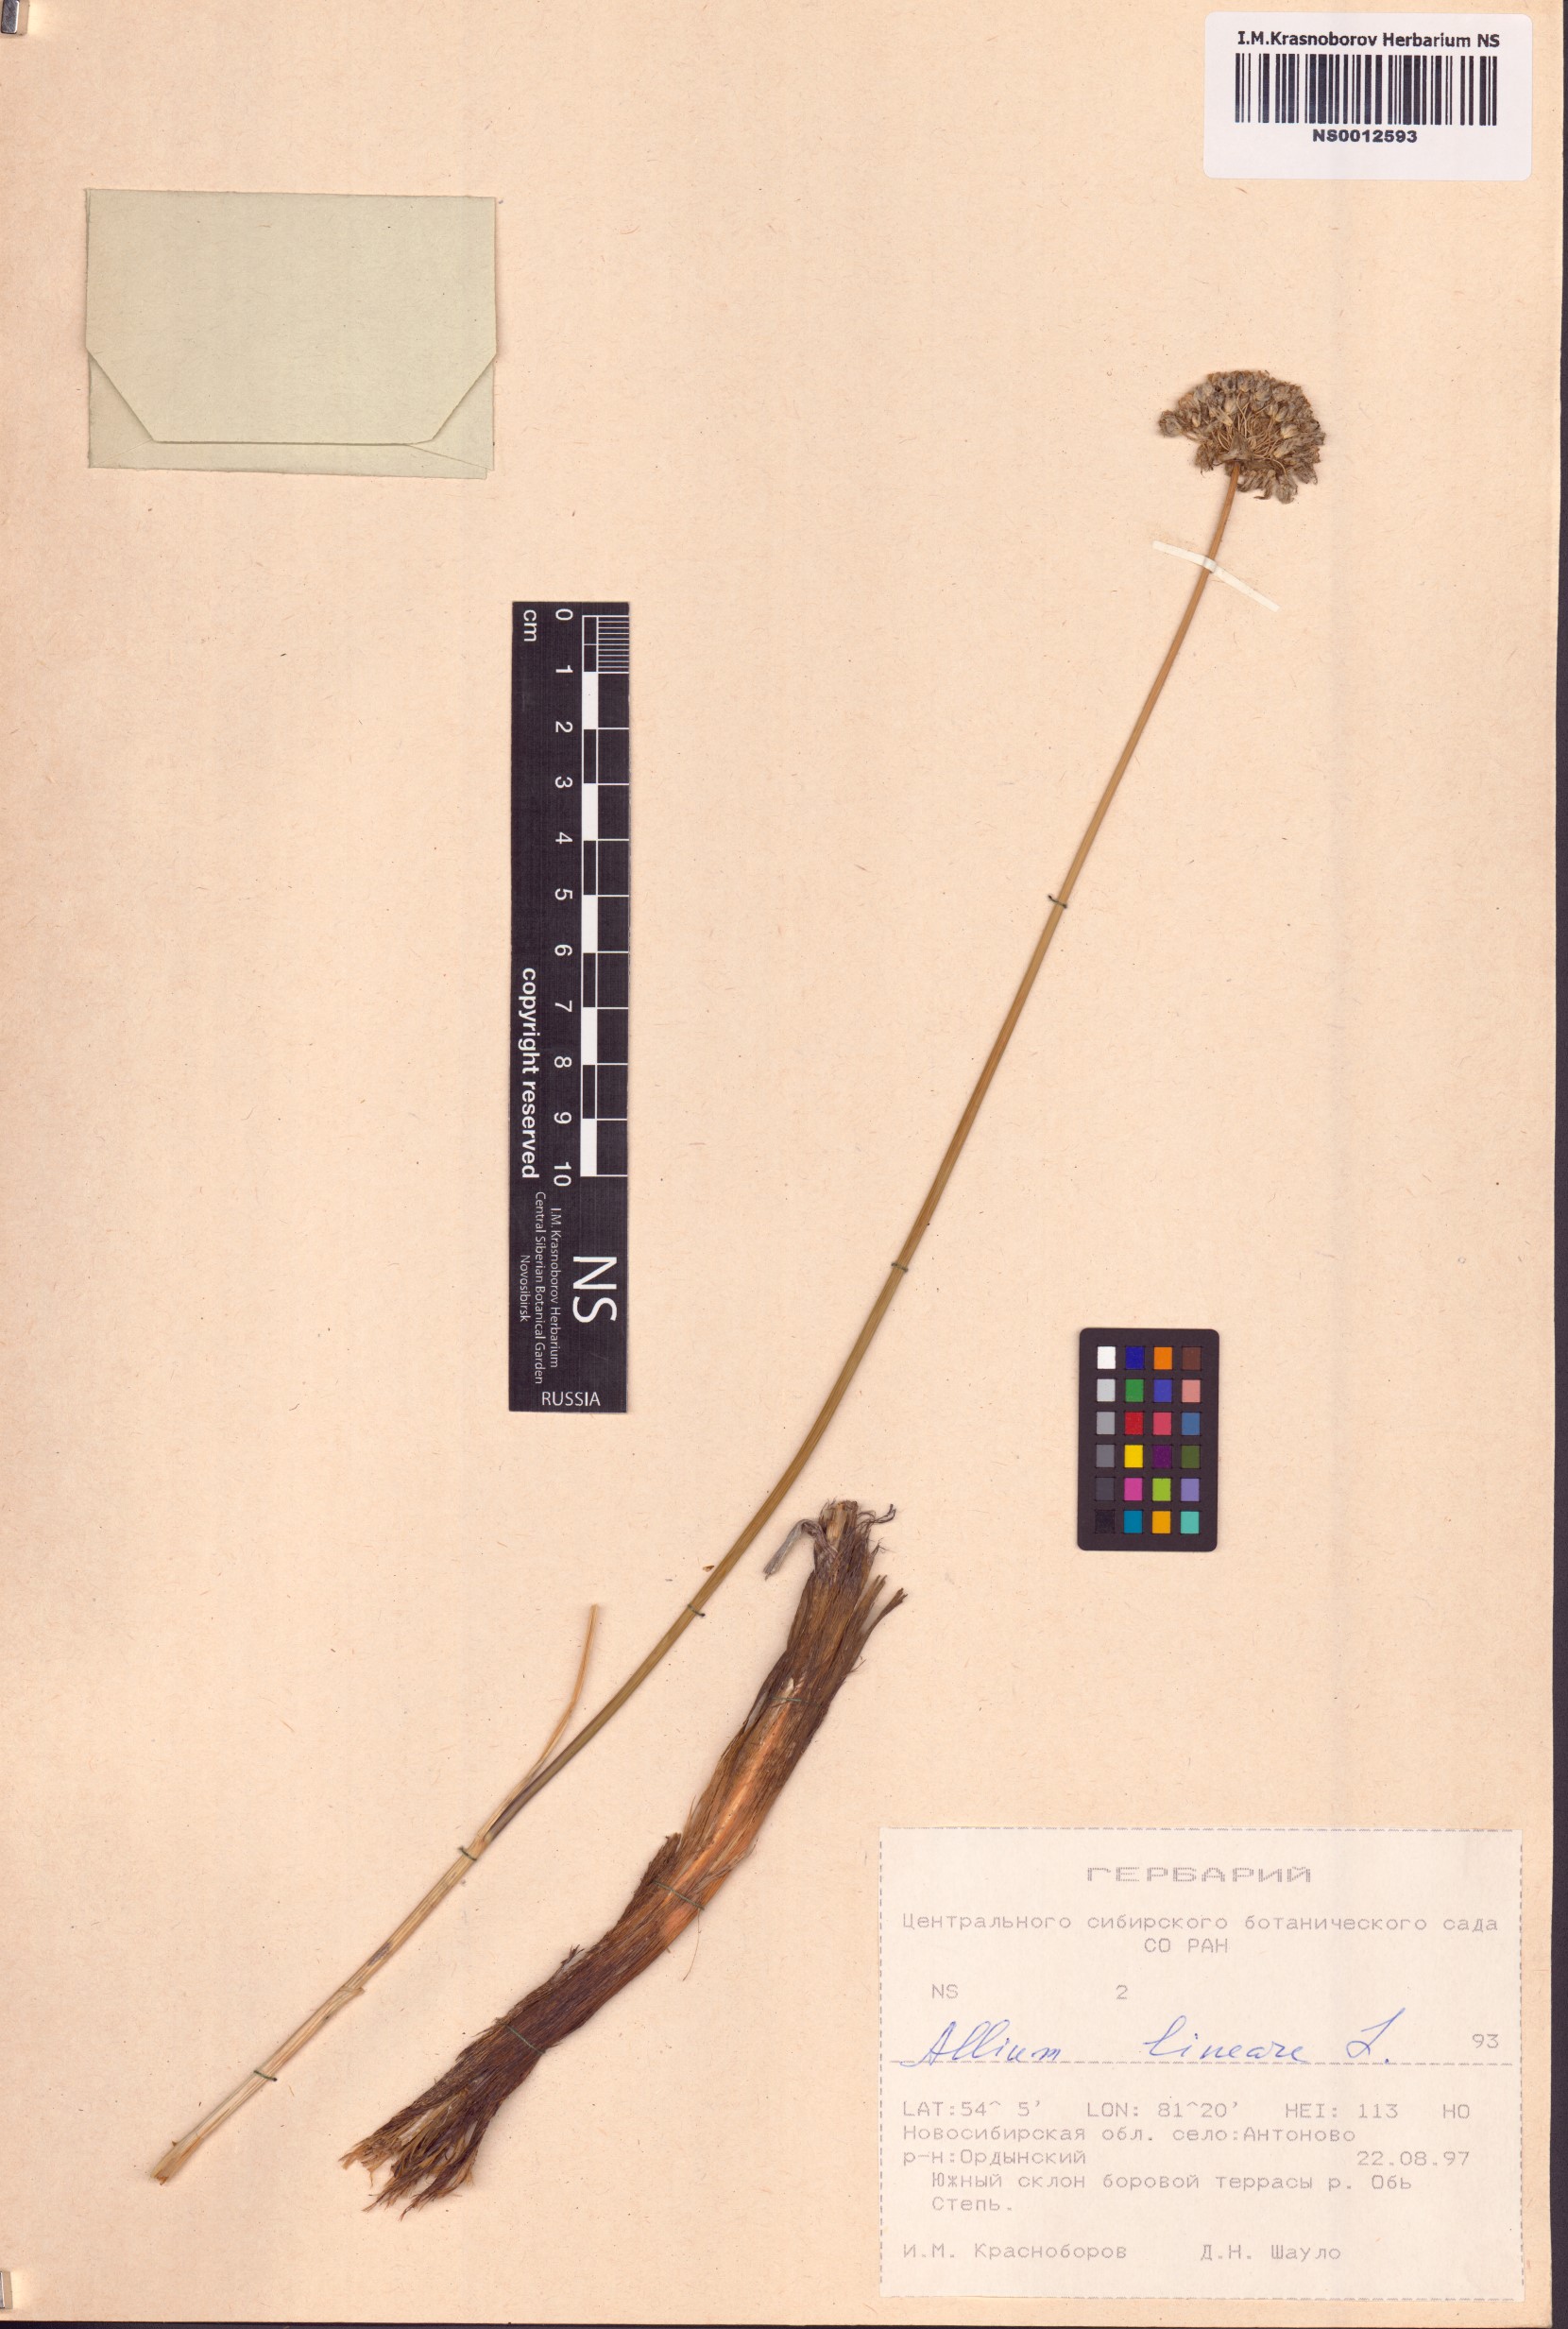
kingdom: Plantae
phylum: Tracheophyta
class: Liliopsida
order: Asparagales
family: Amaryllidaceae
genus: Allium
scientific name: Allium lineare
